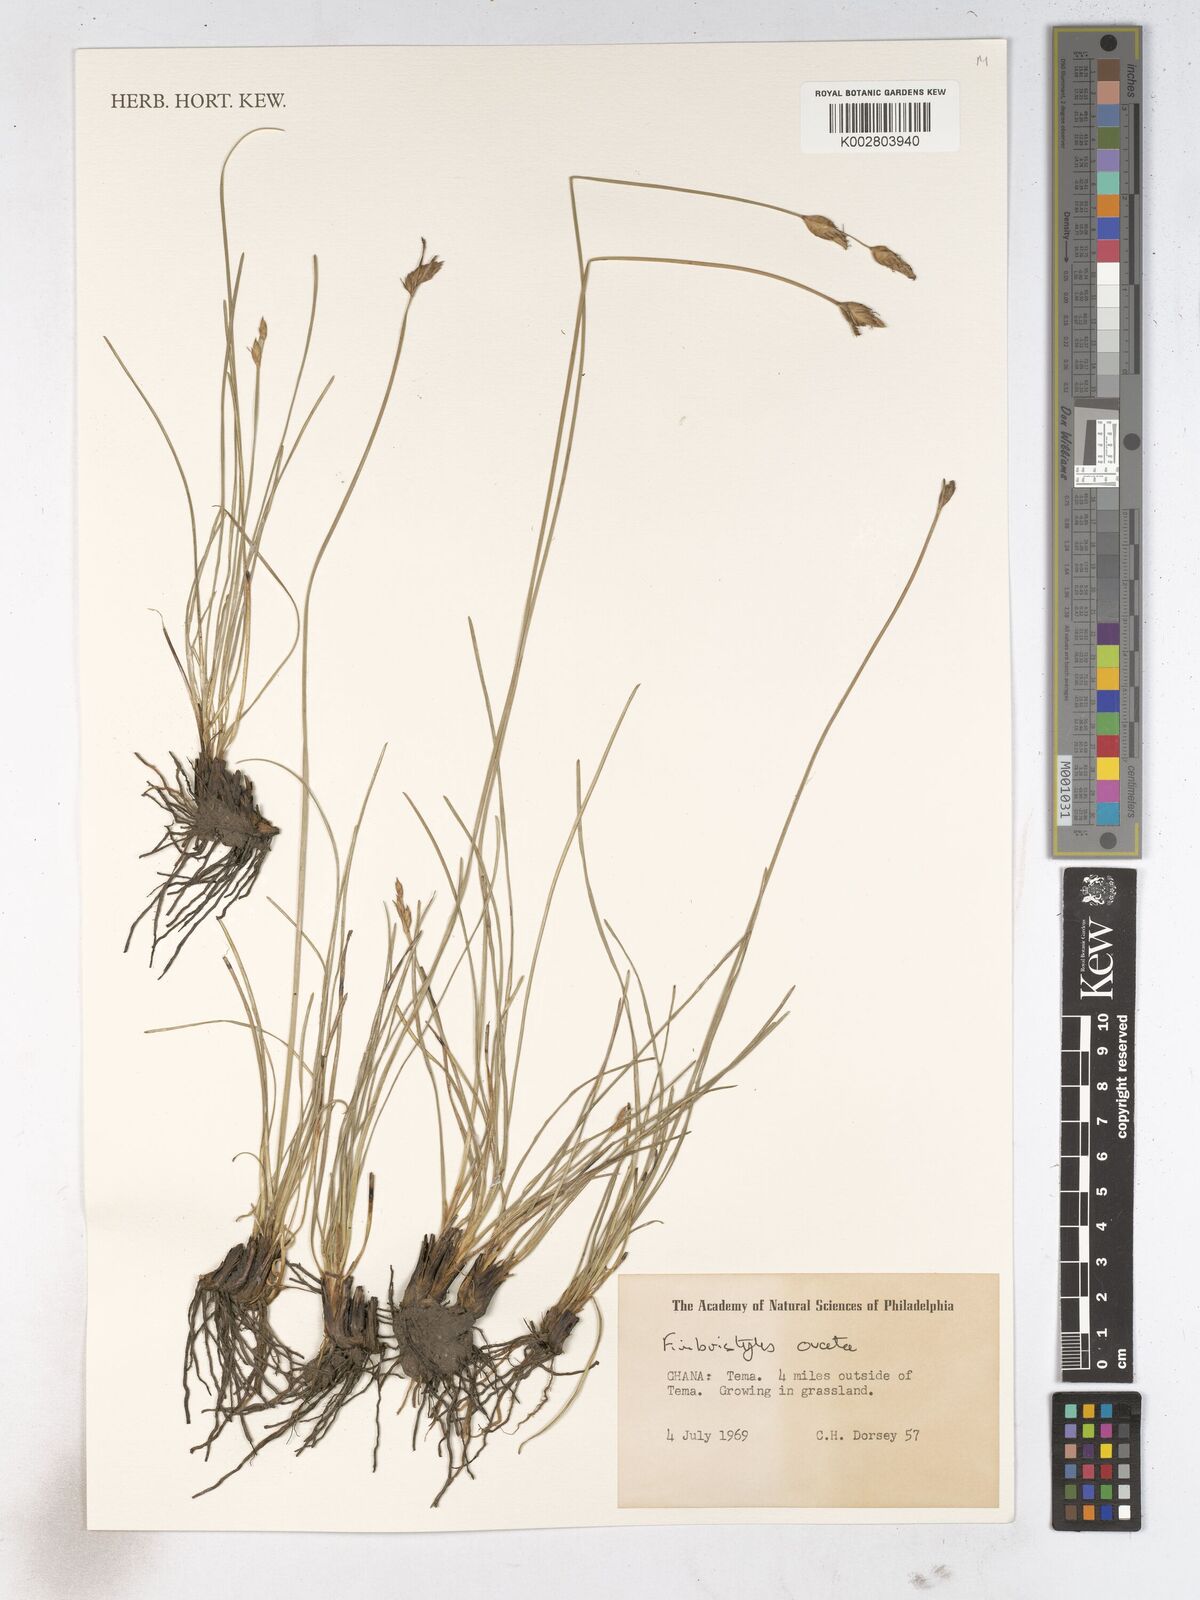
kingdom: Plantae
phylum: Tracheophyta
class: Liliopsida
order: Poales
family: Cyperaceae
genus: Abildgaardia
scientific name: Abildgaardia ovata
